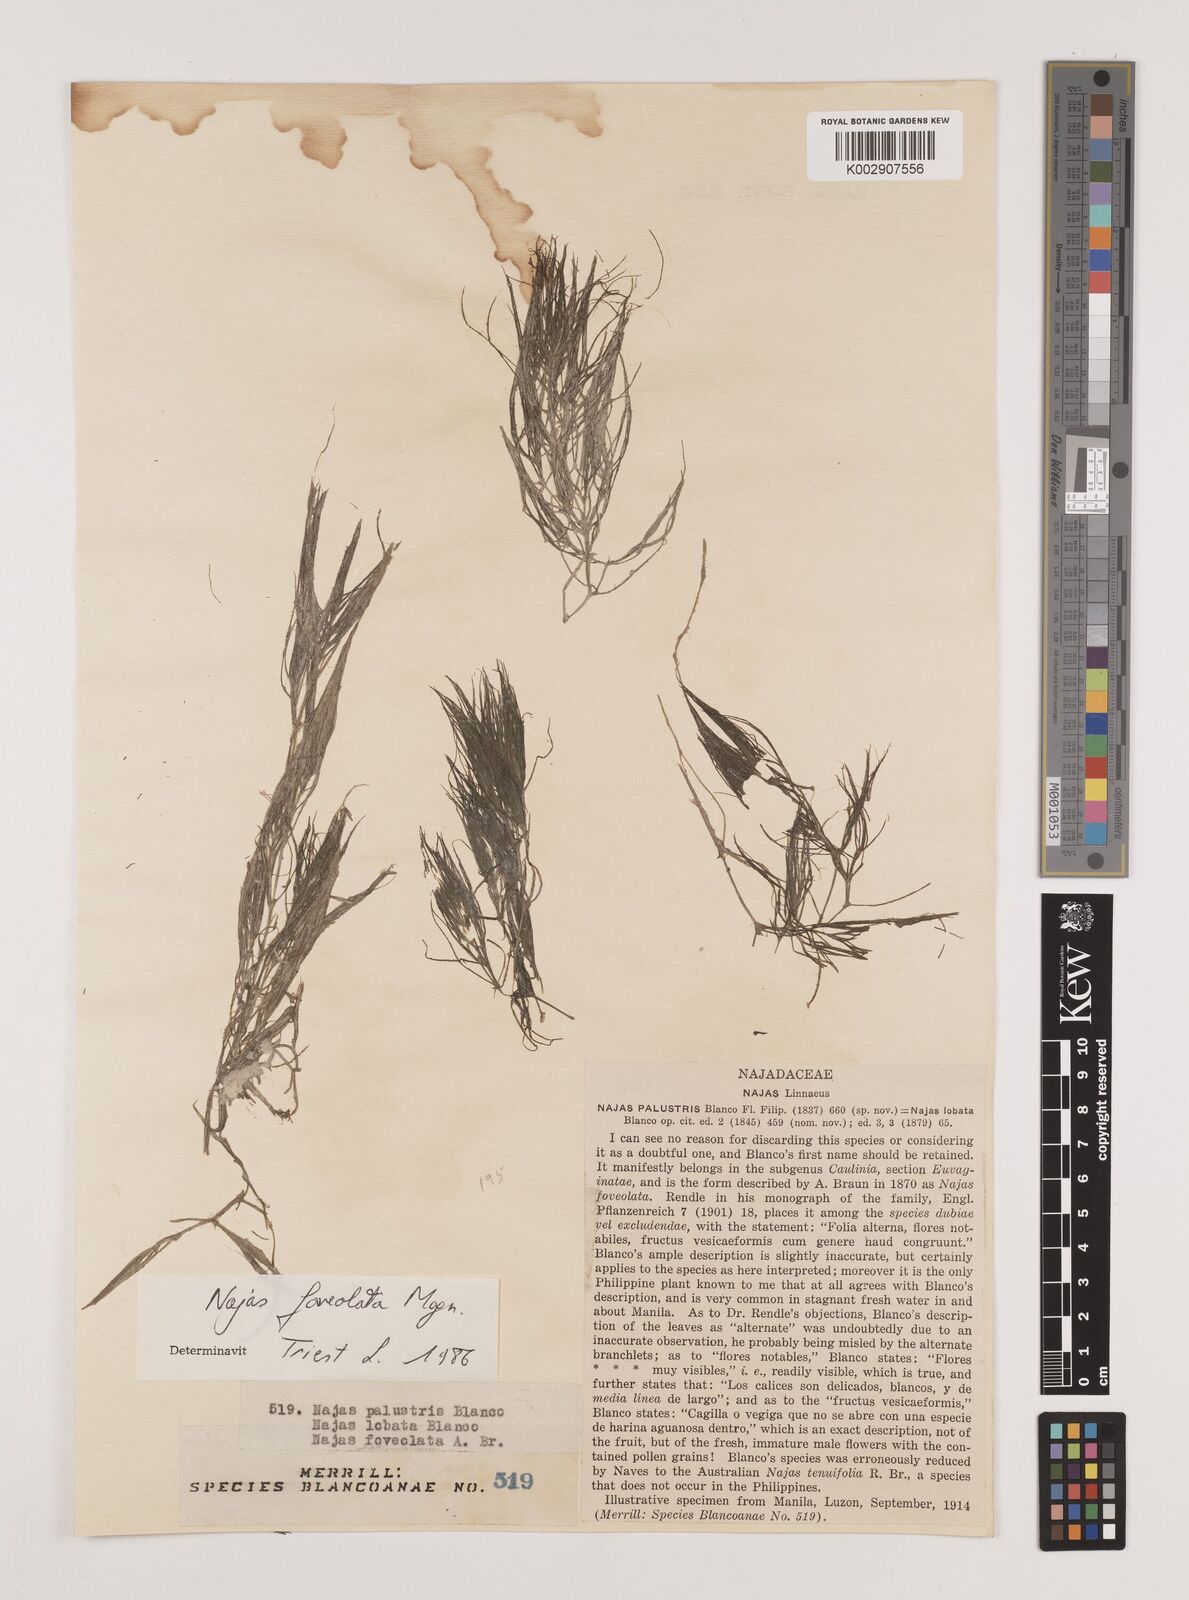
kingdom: Plantae
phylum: Tracheophyta
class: Liliopsida
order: Alismatales
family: Hydrocharitaceae
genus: Najas
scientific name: Najas indica
